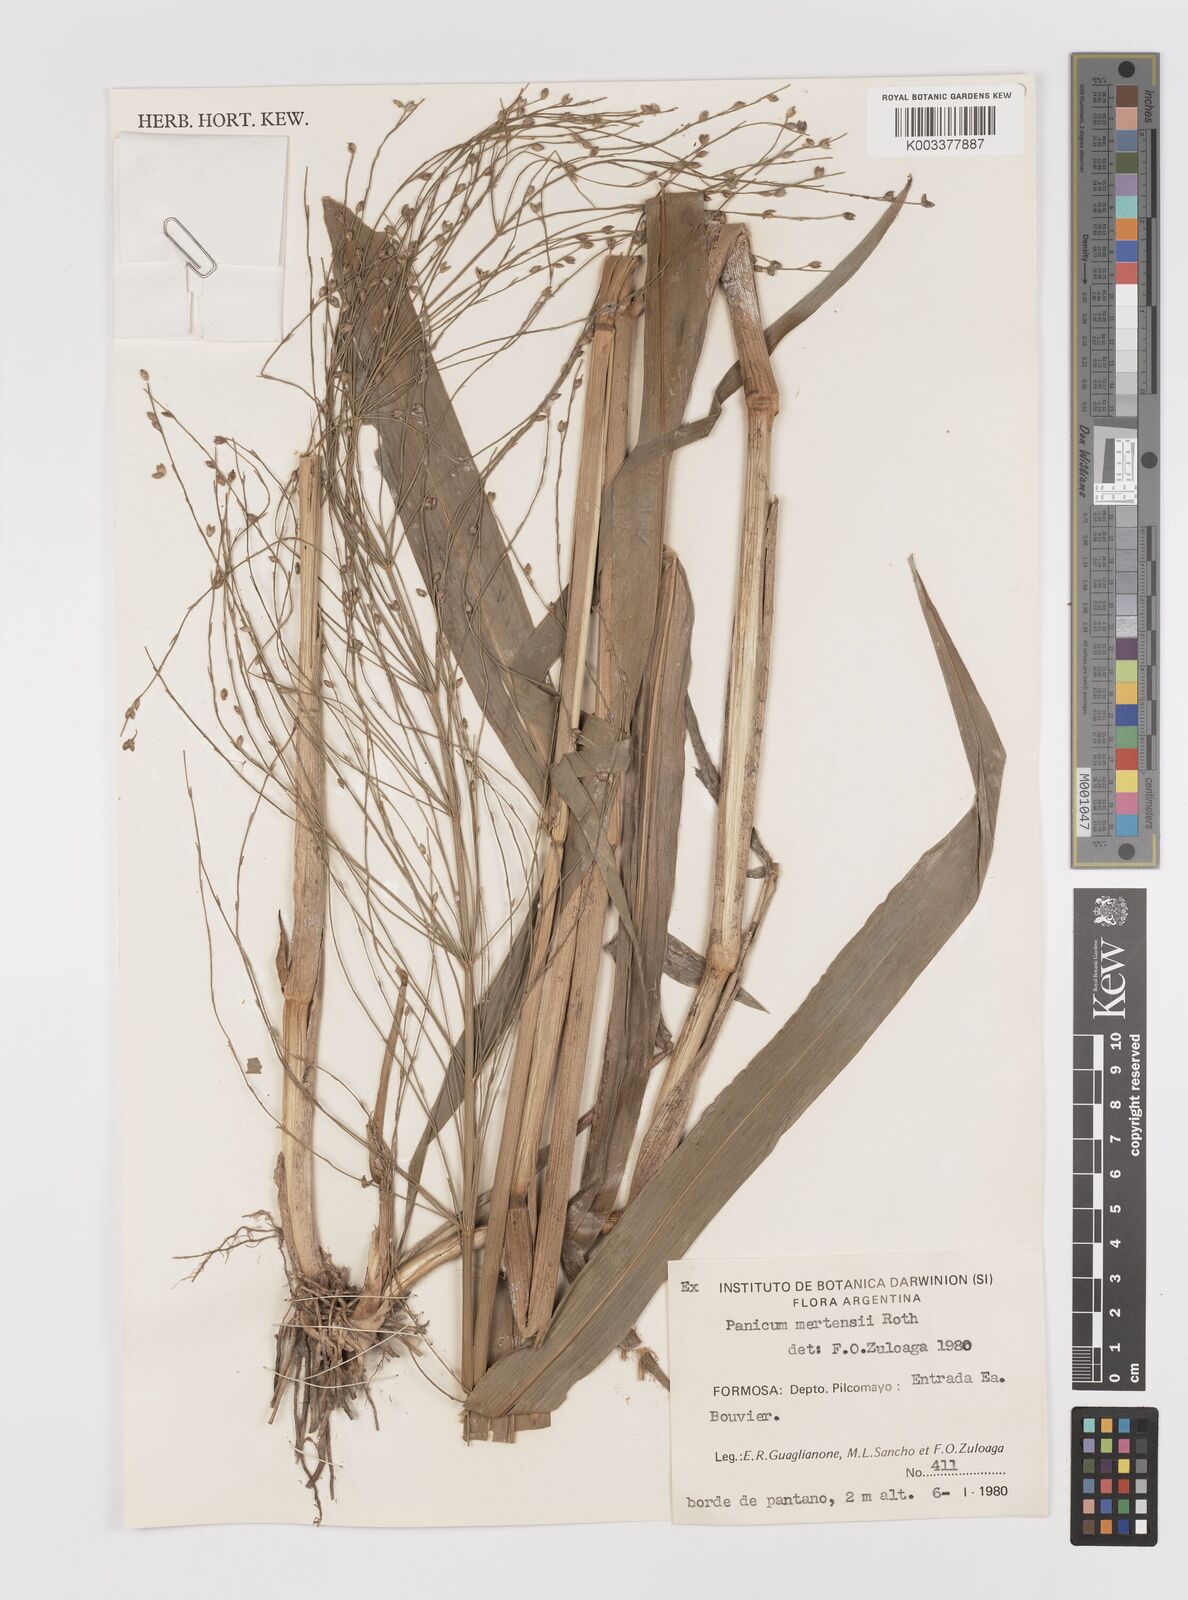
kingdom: Plantae
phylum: Tracheophyta
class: Liliopsida
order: Poales
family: Poaceae
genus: Stephostachys
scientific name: Stephostachys mertensii
